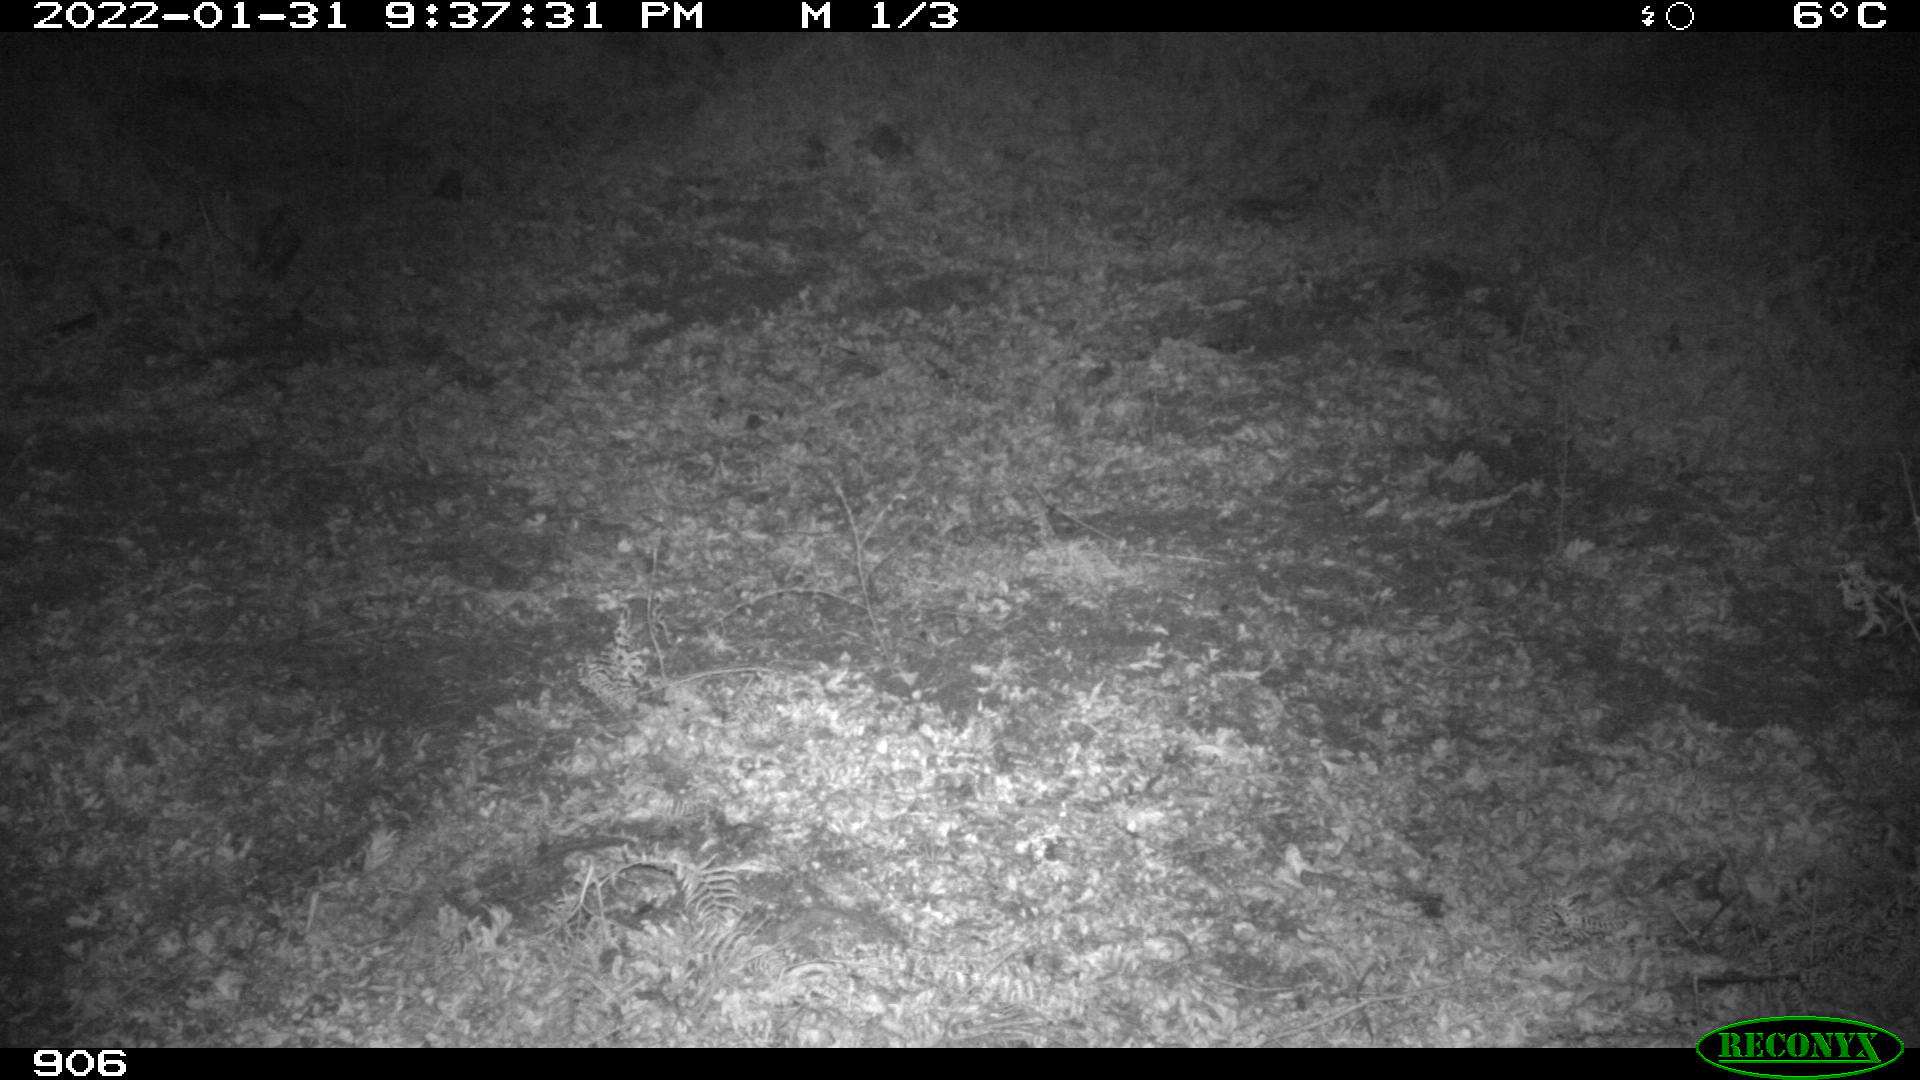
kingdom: Animalia
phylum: Chordata
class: Mammalia
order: Artiodactyla
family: Suidae
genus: Sus
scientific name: Sus scrofa
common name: Wild boar
